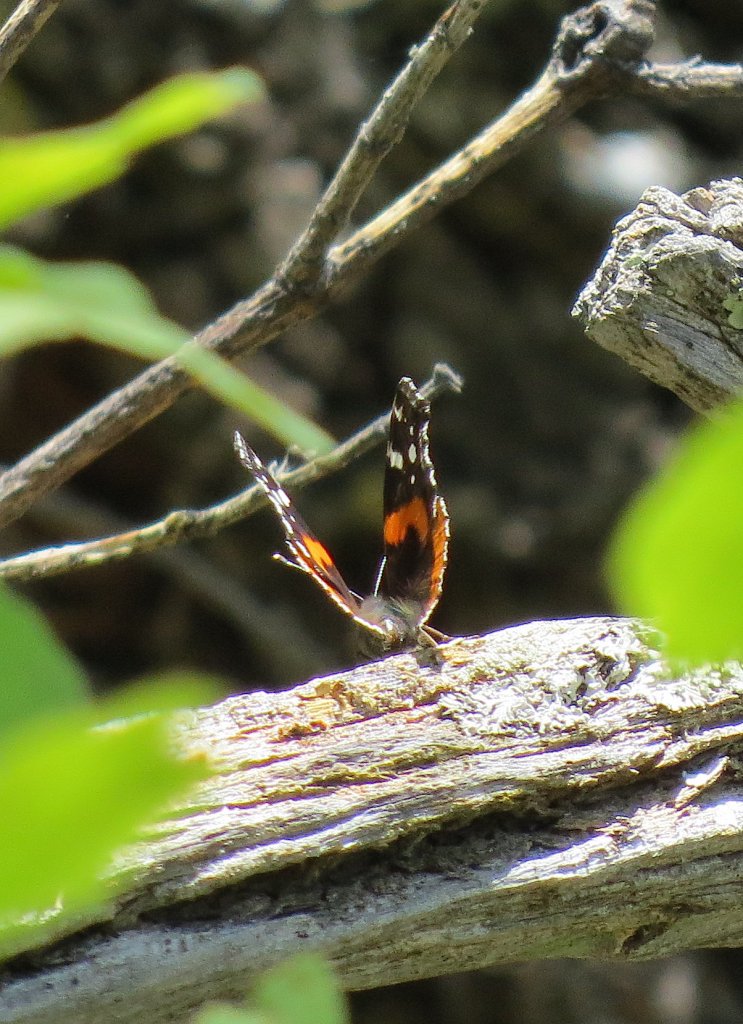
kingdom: Animalia
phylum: Arthropoda
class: Insecta
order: Lepidoptera
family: Nymphalidae
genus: Vanessa
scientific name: Vanessa atalanta
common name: Red Admiral
